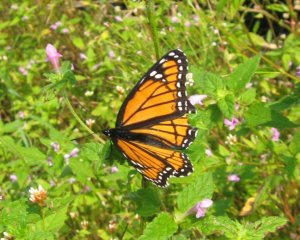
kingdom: Animalia
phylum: Arthropoda
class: Insecta
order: Lepidoptera
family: Nymphalidae
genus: Limenitis
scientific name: Limenitis archippus
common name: Viceroy
